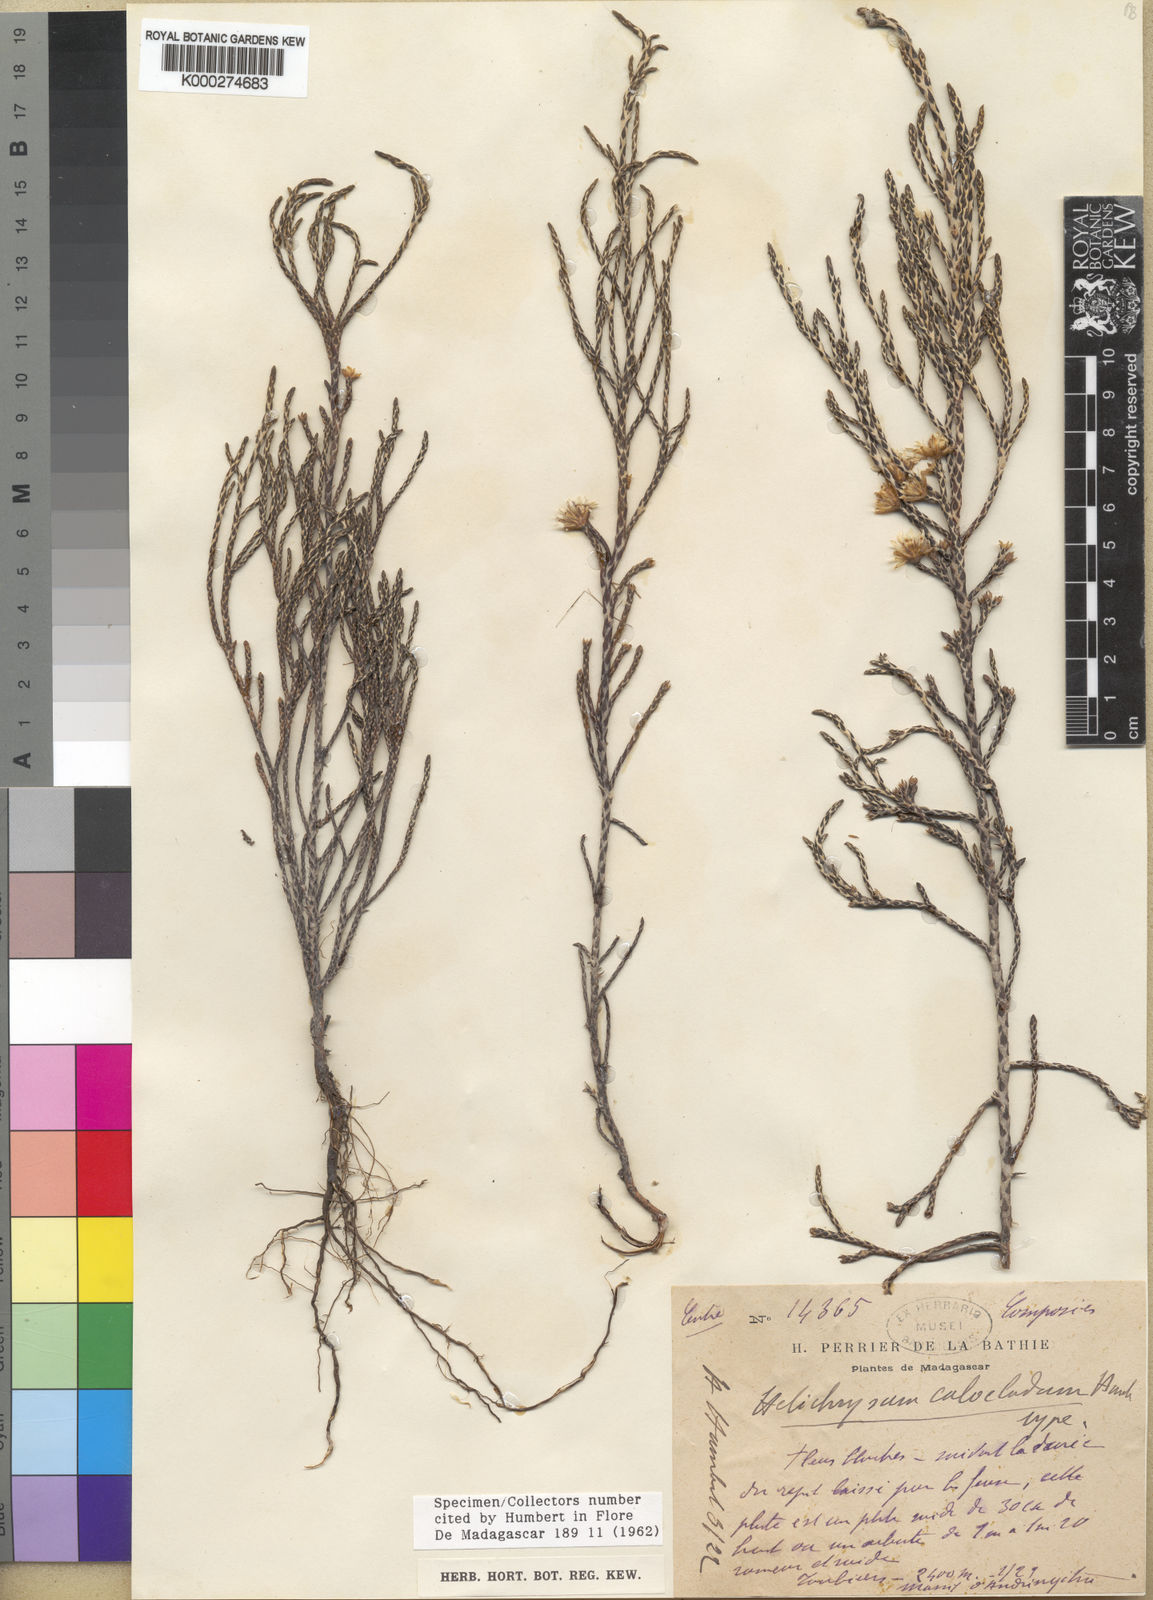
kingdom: Plantae
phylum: Tracheophyta
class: Magnoliopsida
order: Asterales
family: Asteraceae
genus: Helichrysum
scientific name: Helichrysum calocladum
